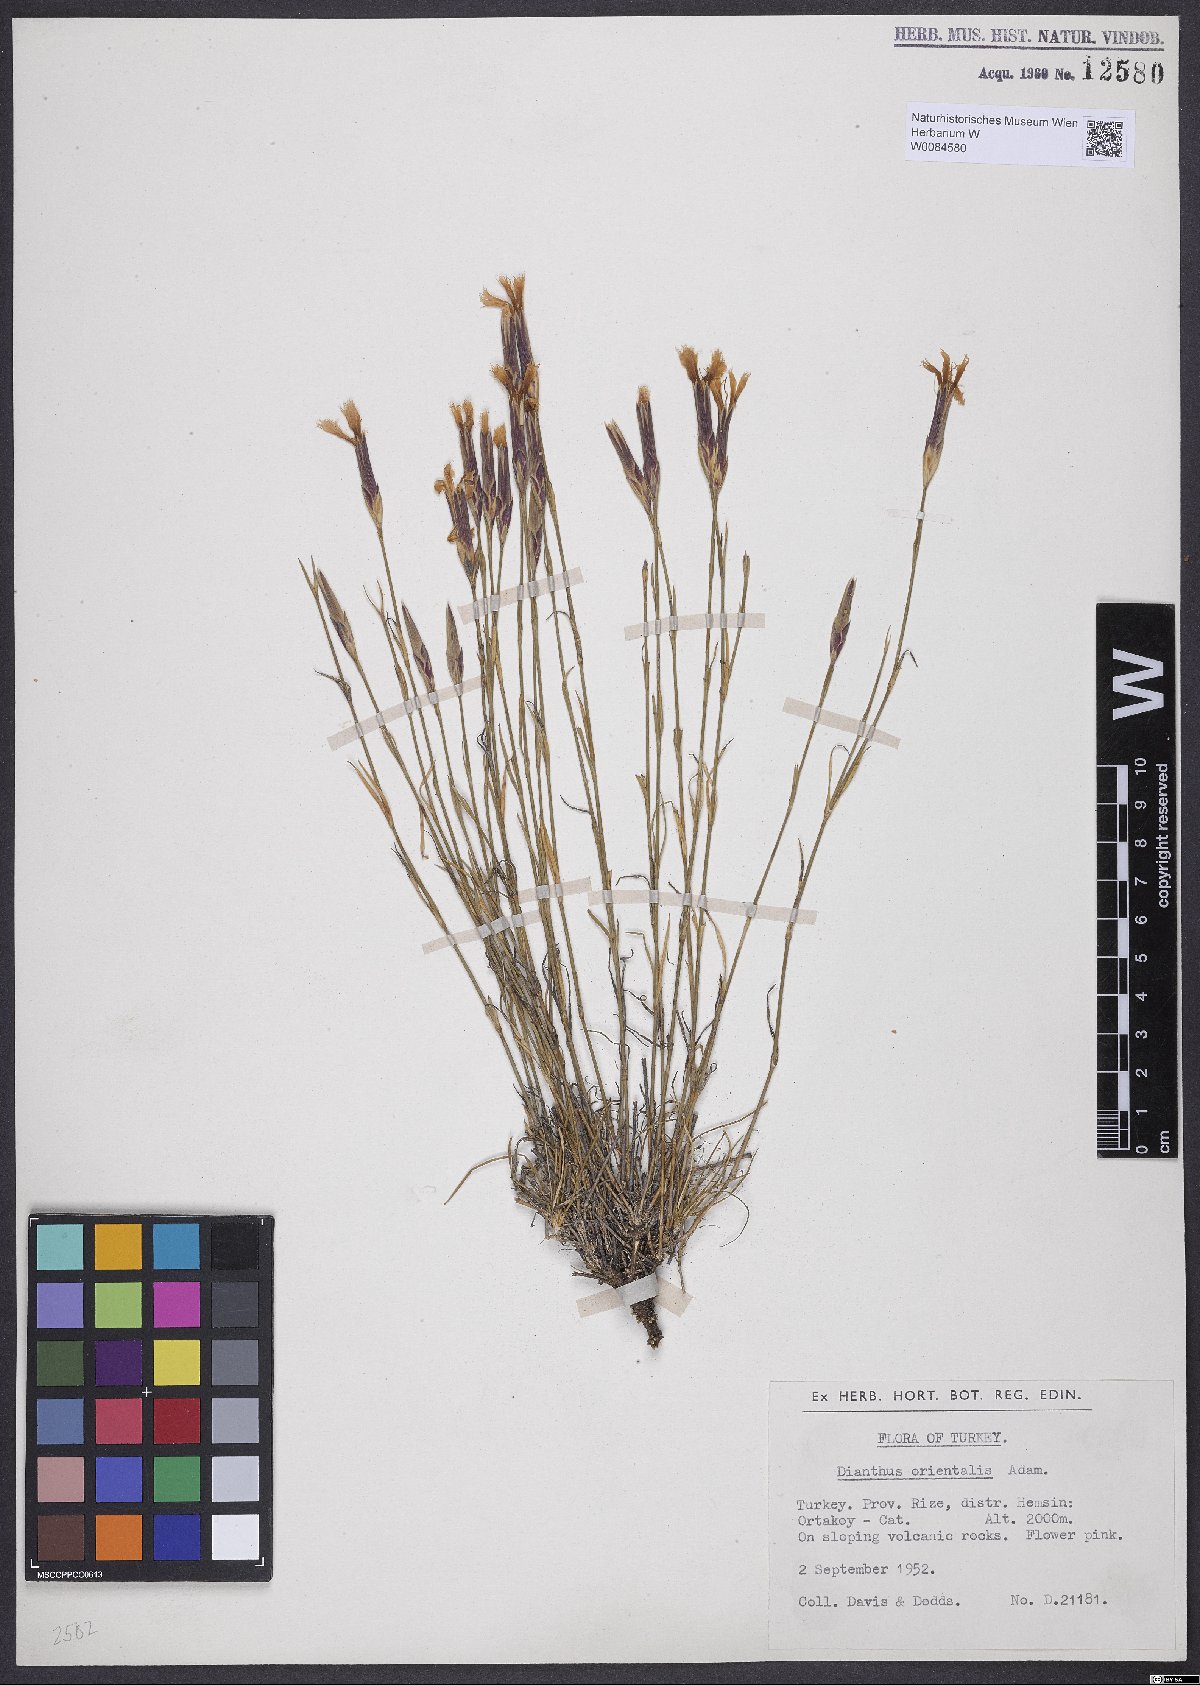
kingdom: Plantae
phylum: Tracheophyta
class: Magnoliopsida
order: Caryophyllales
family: Caryophyllaceae
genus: Dianthus
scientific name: Dianthus orientalis
